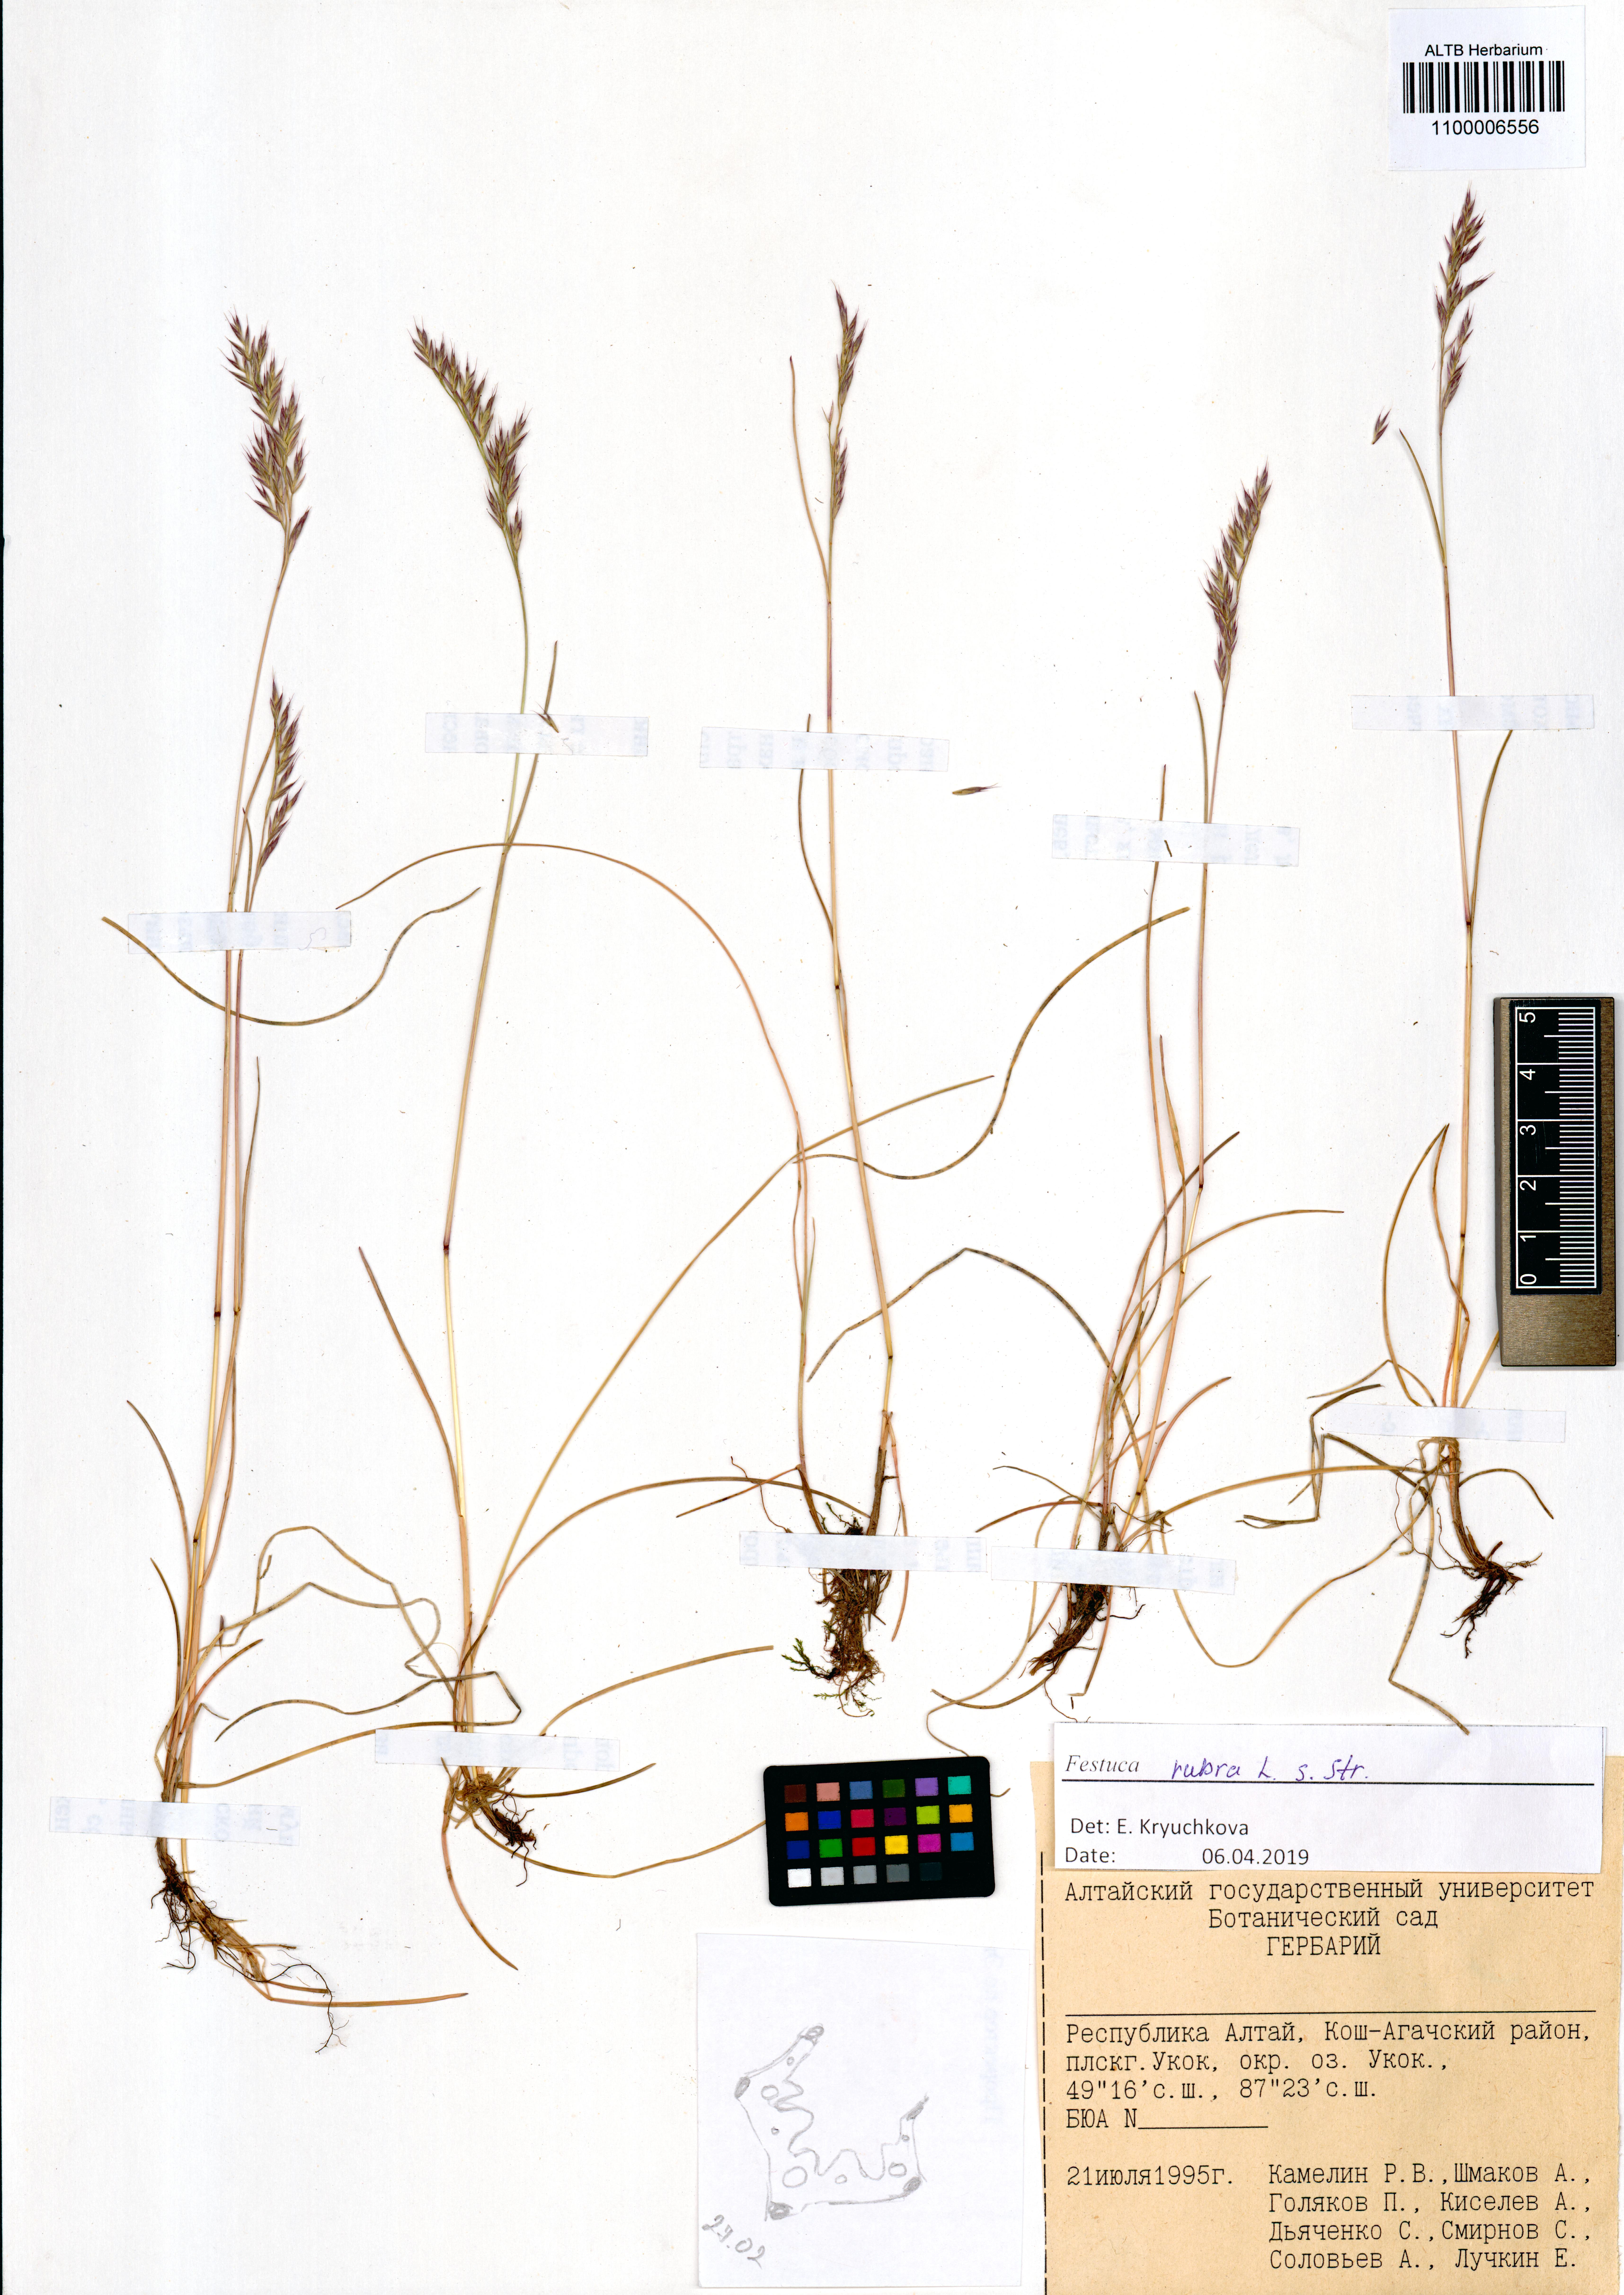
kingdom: Plantae
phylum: Tracheophyta
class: Liliopsida
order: Poales
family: Poaceae
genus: Festuca
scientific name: Festuca rubra
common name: Red fescue
